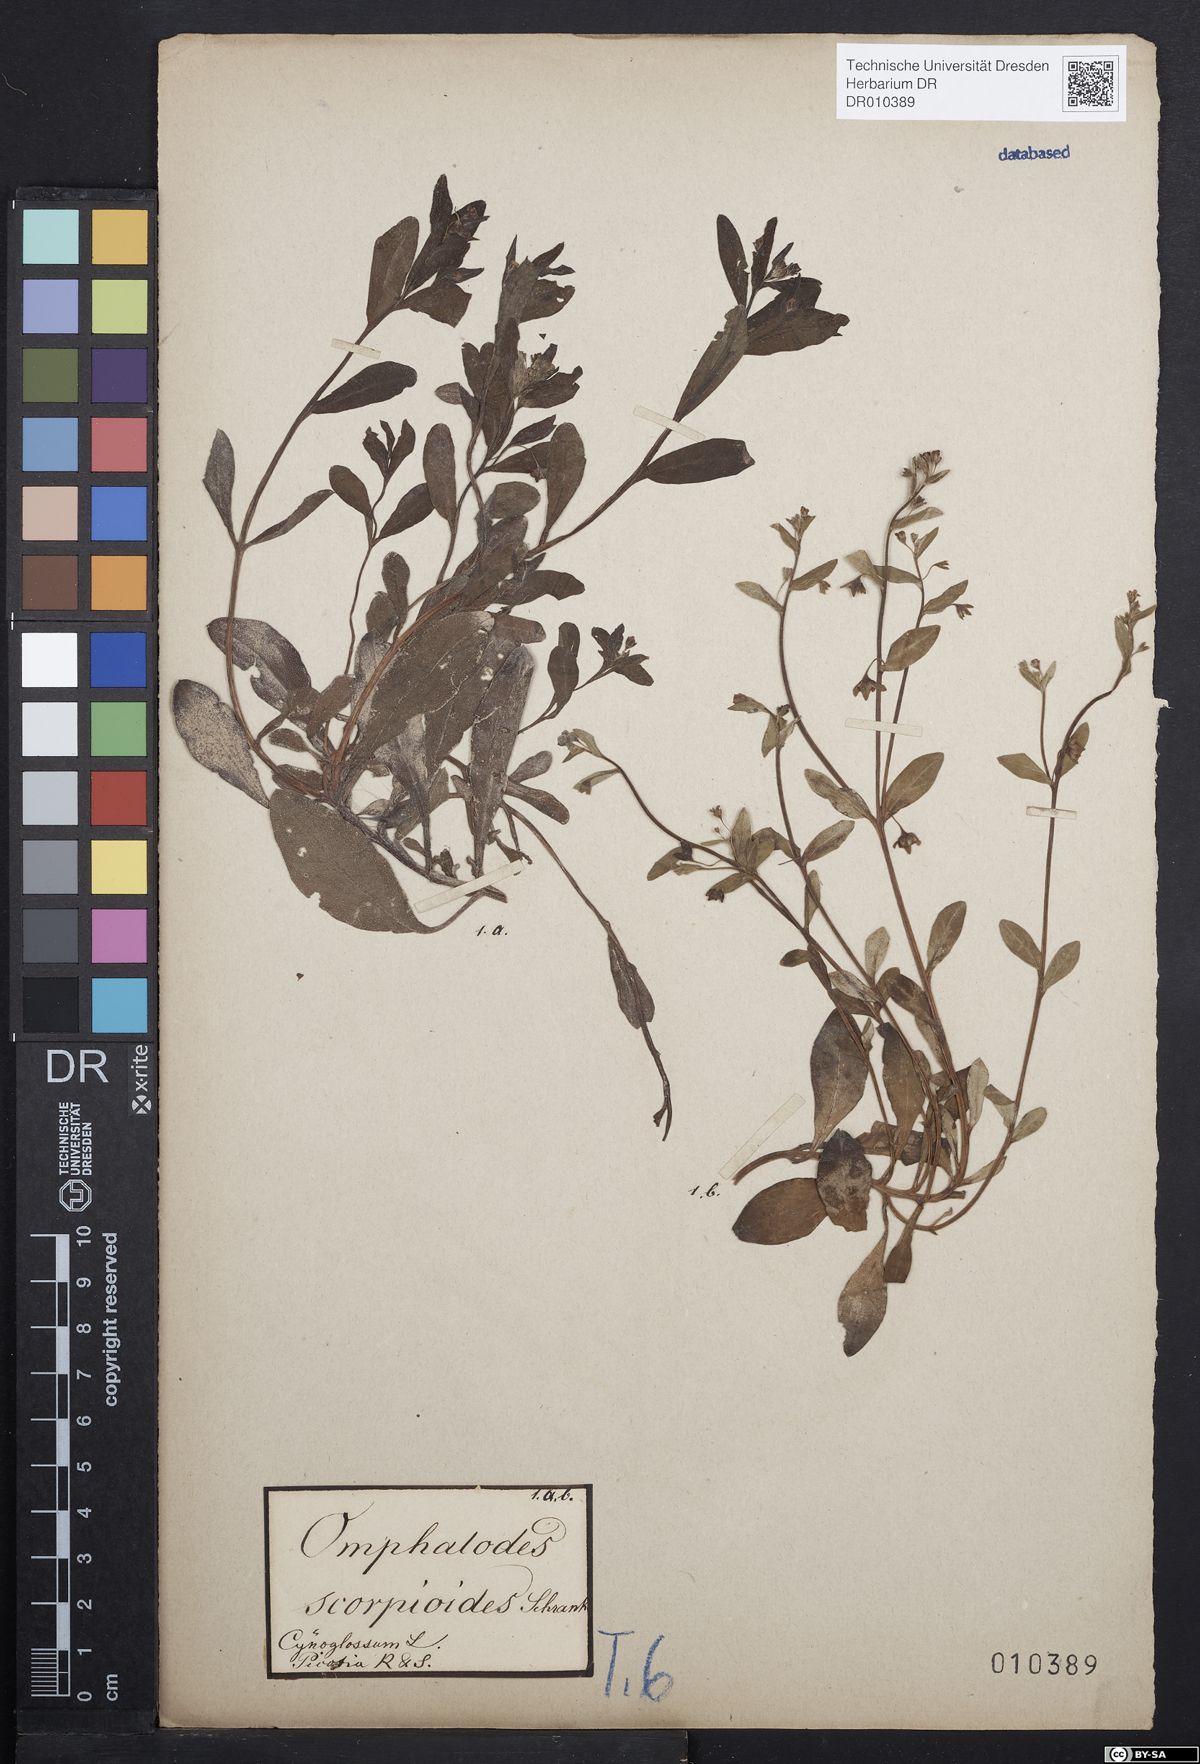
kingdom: Plantae
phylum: Tracheophyta
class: Magnoliopsida
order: Boraginales
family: Boraginaceae
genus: Memoremea
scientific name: Memoremea scorpioides
